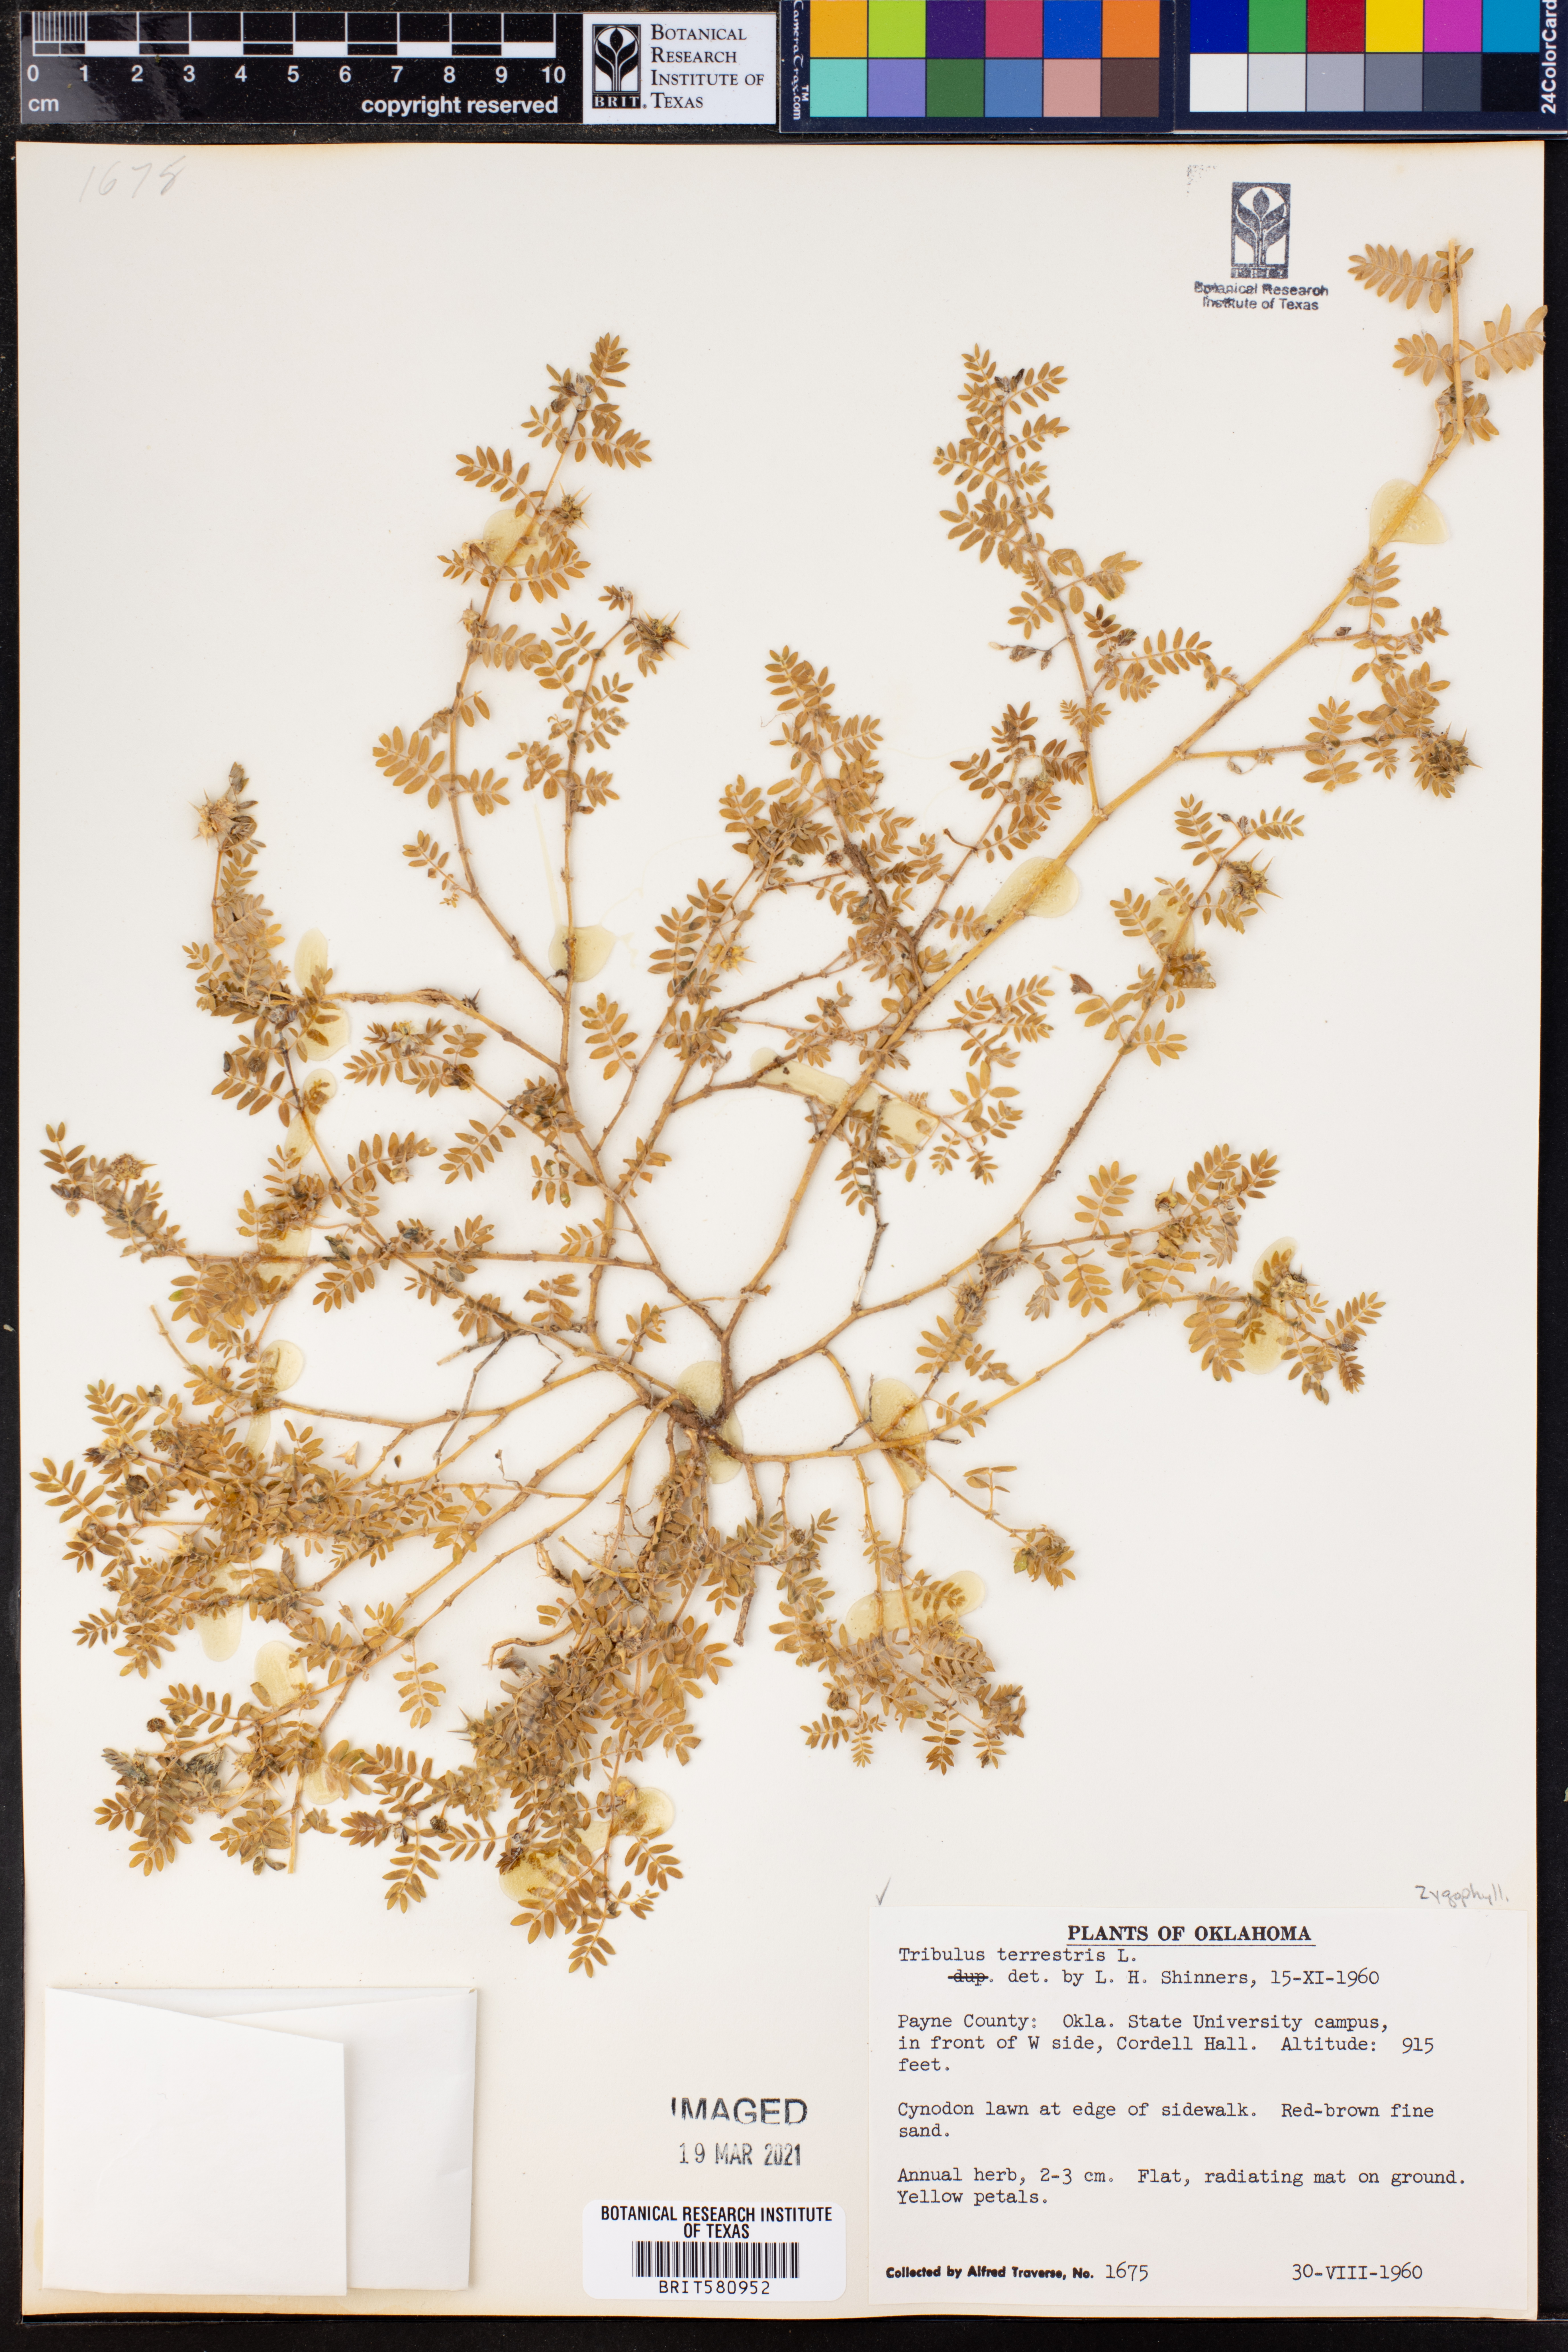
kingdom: Plantae
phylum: Tracheophyta
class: Magnoliopsida
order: Zygophyllales
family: Zygophyllaceae
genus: Tribulus
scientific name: Tribulus terrestris
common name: Puncturevine
